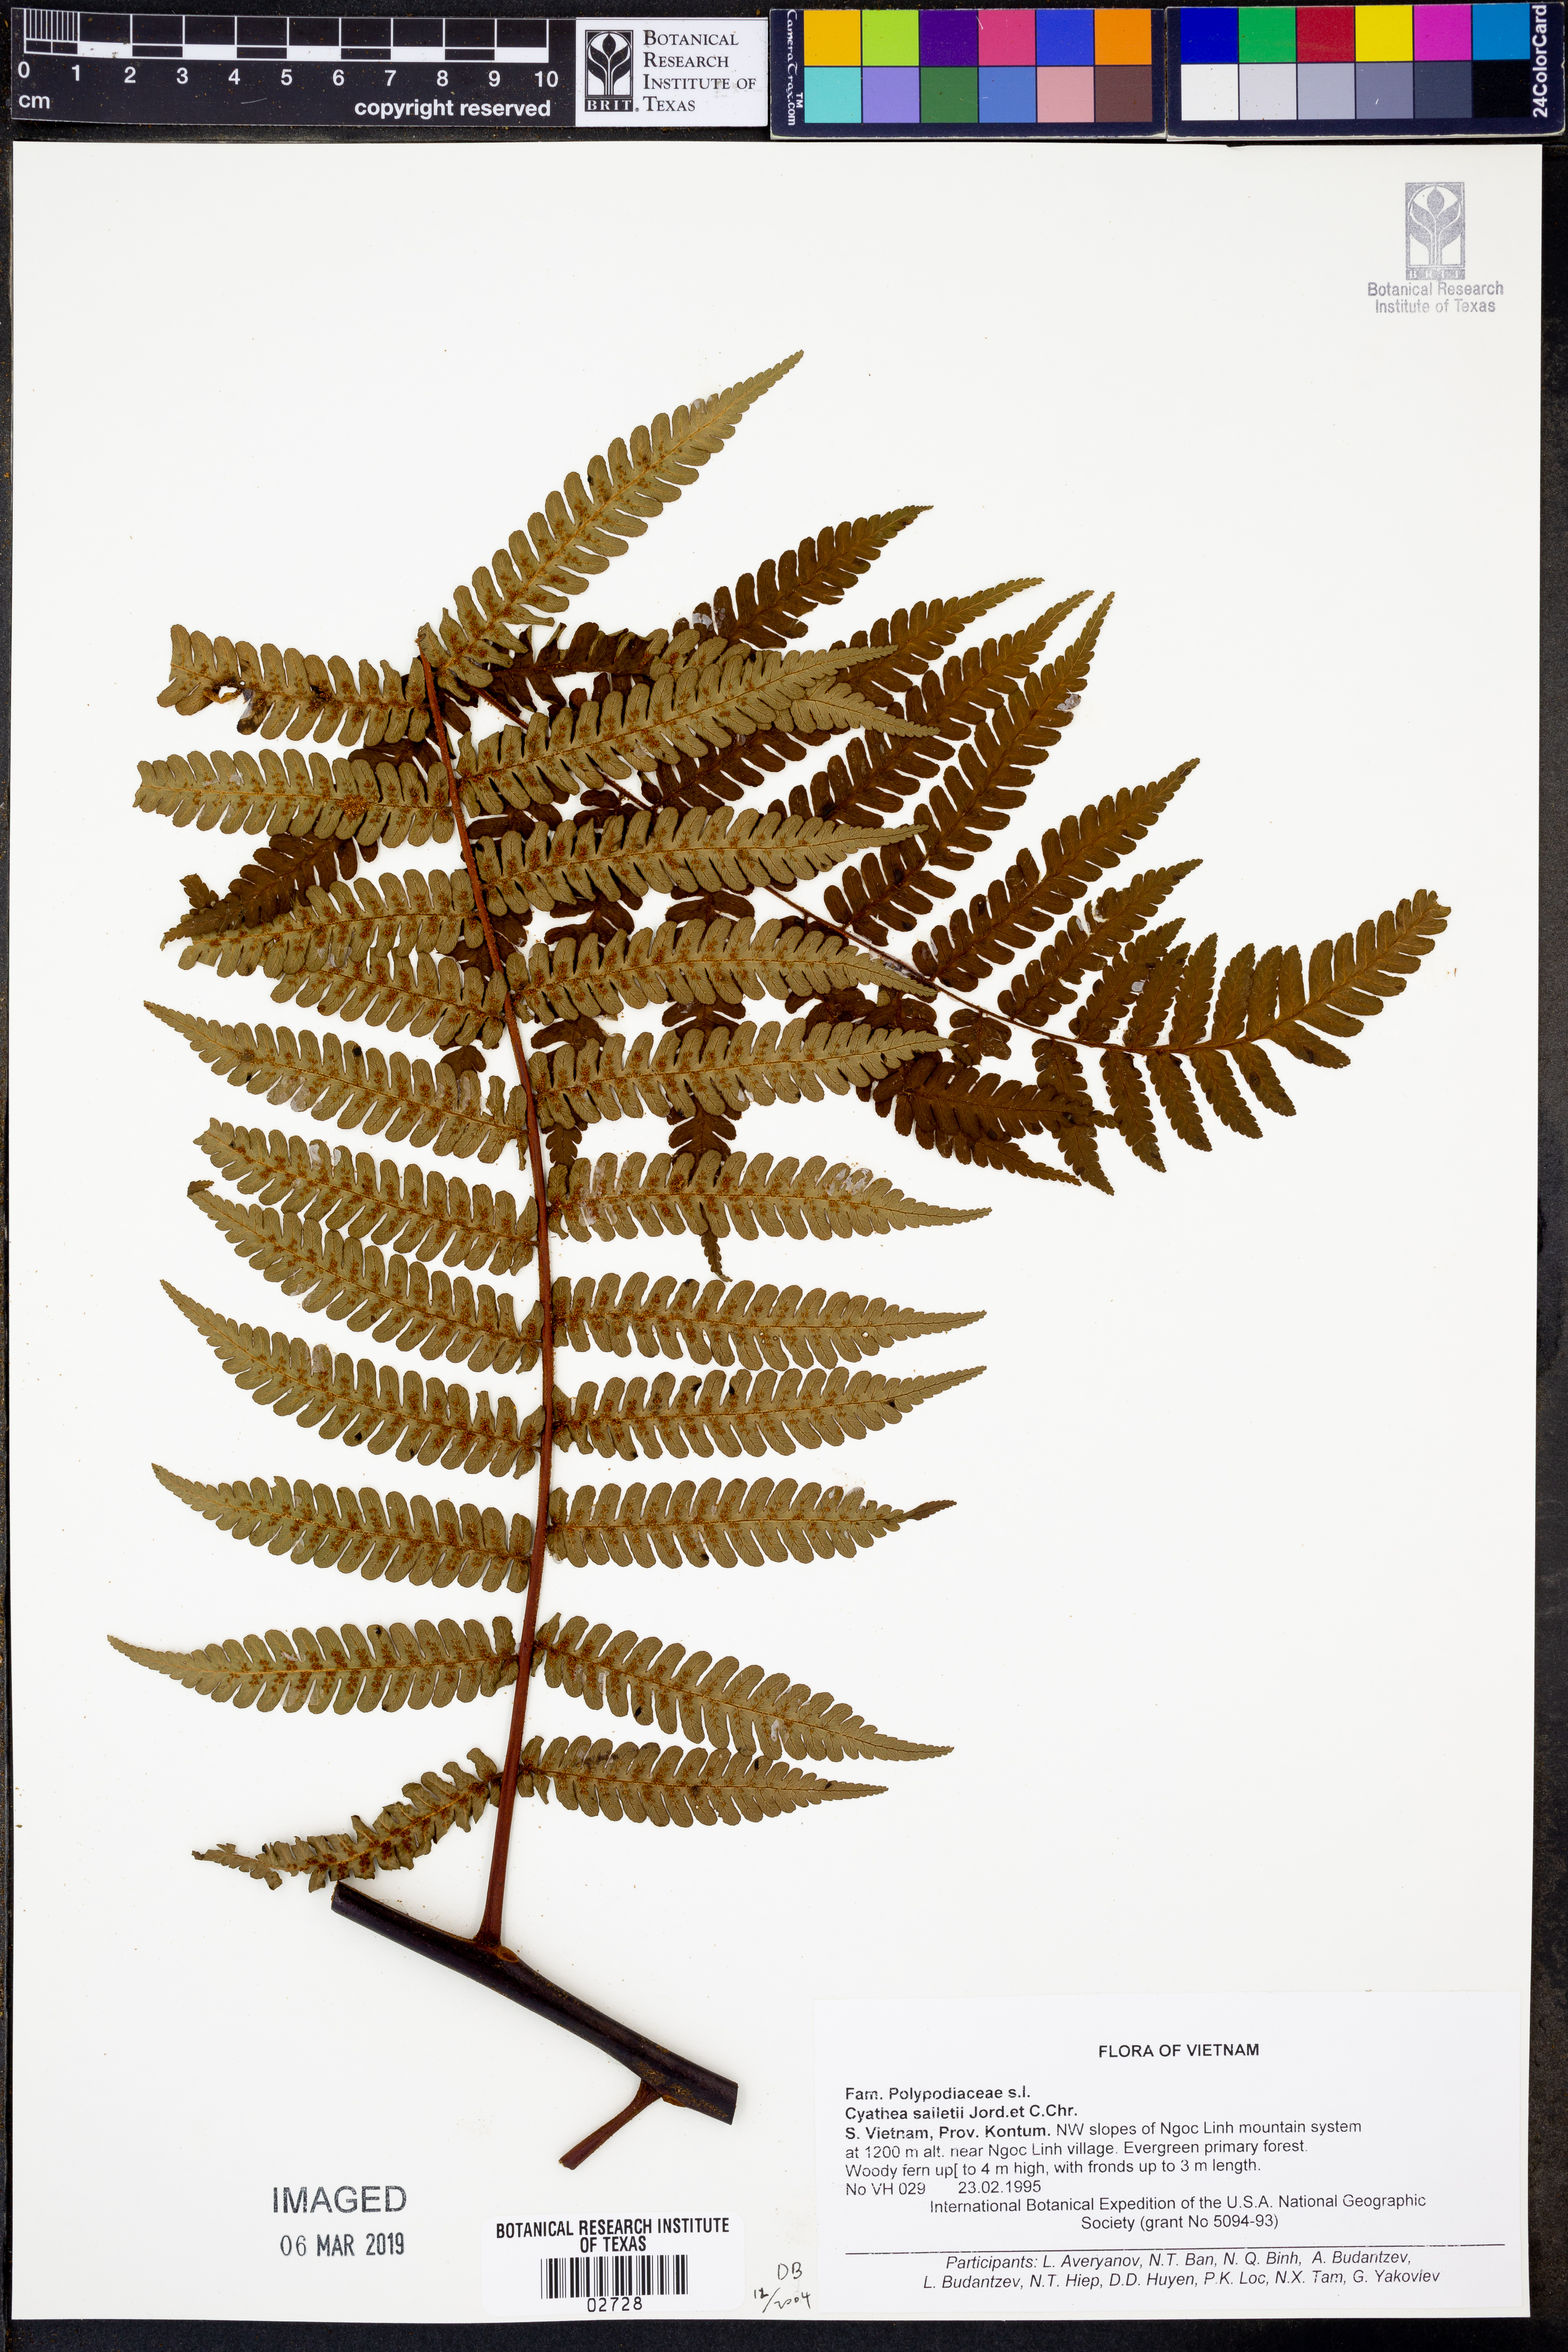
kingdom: Plantae
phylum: Tracheophyta
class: Polypodiopsida
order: Cyatheales
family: Cyatheaceae
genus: Gymnosphaera
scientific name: Gymnosphaera salletii
